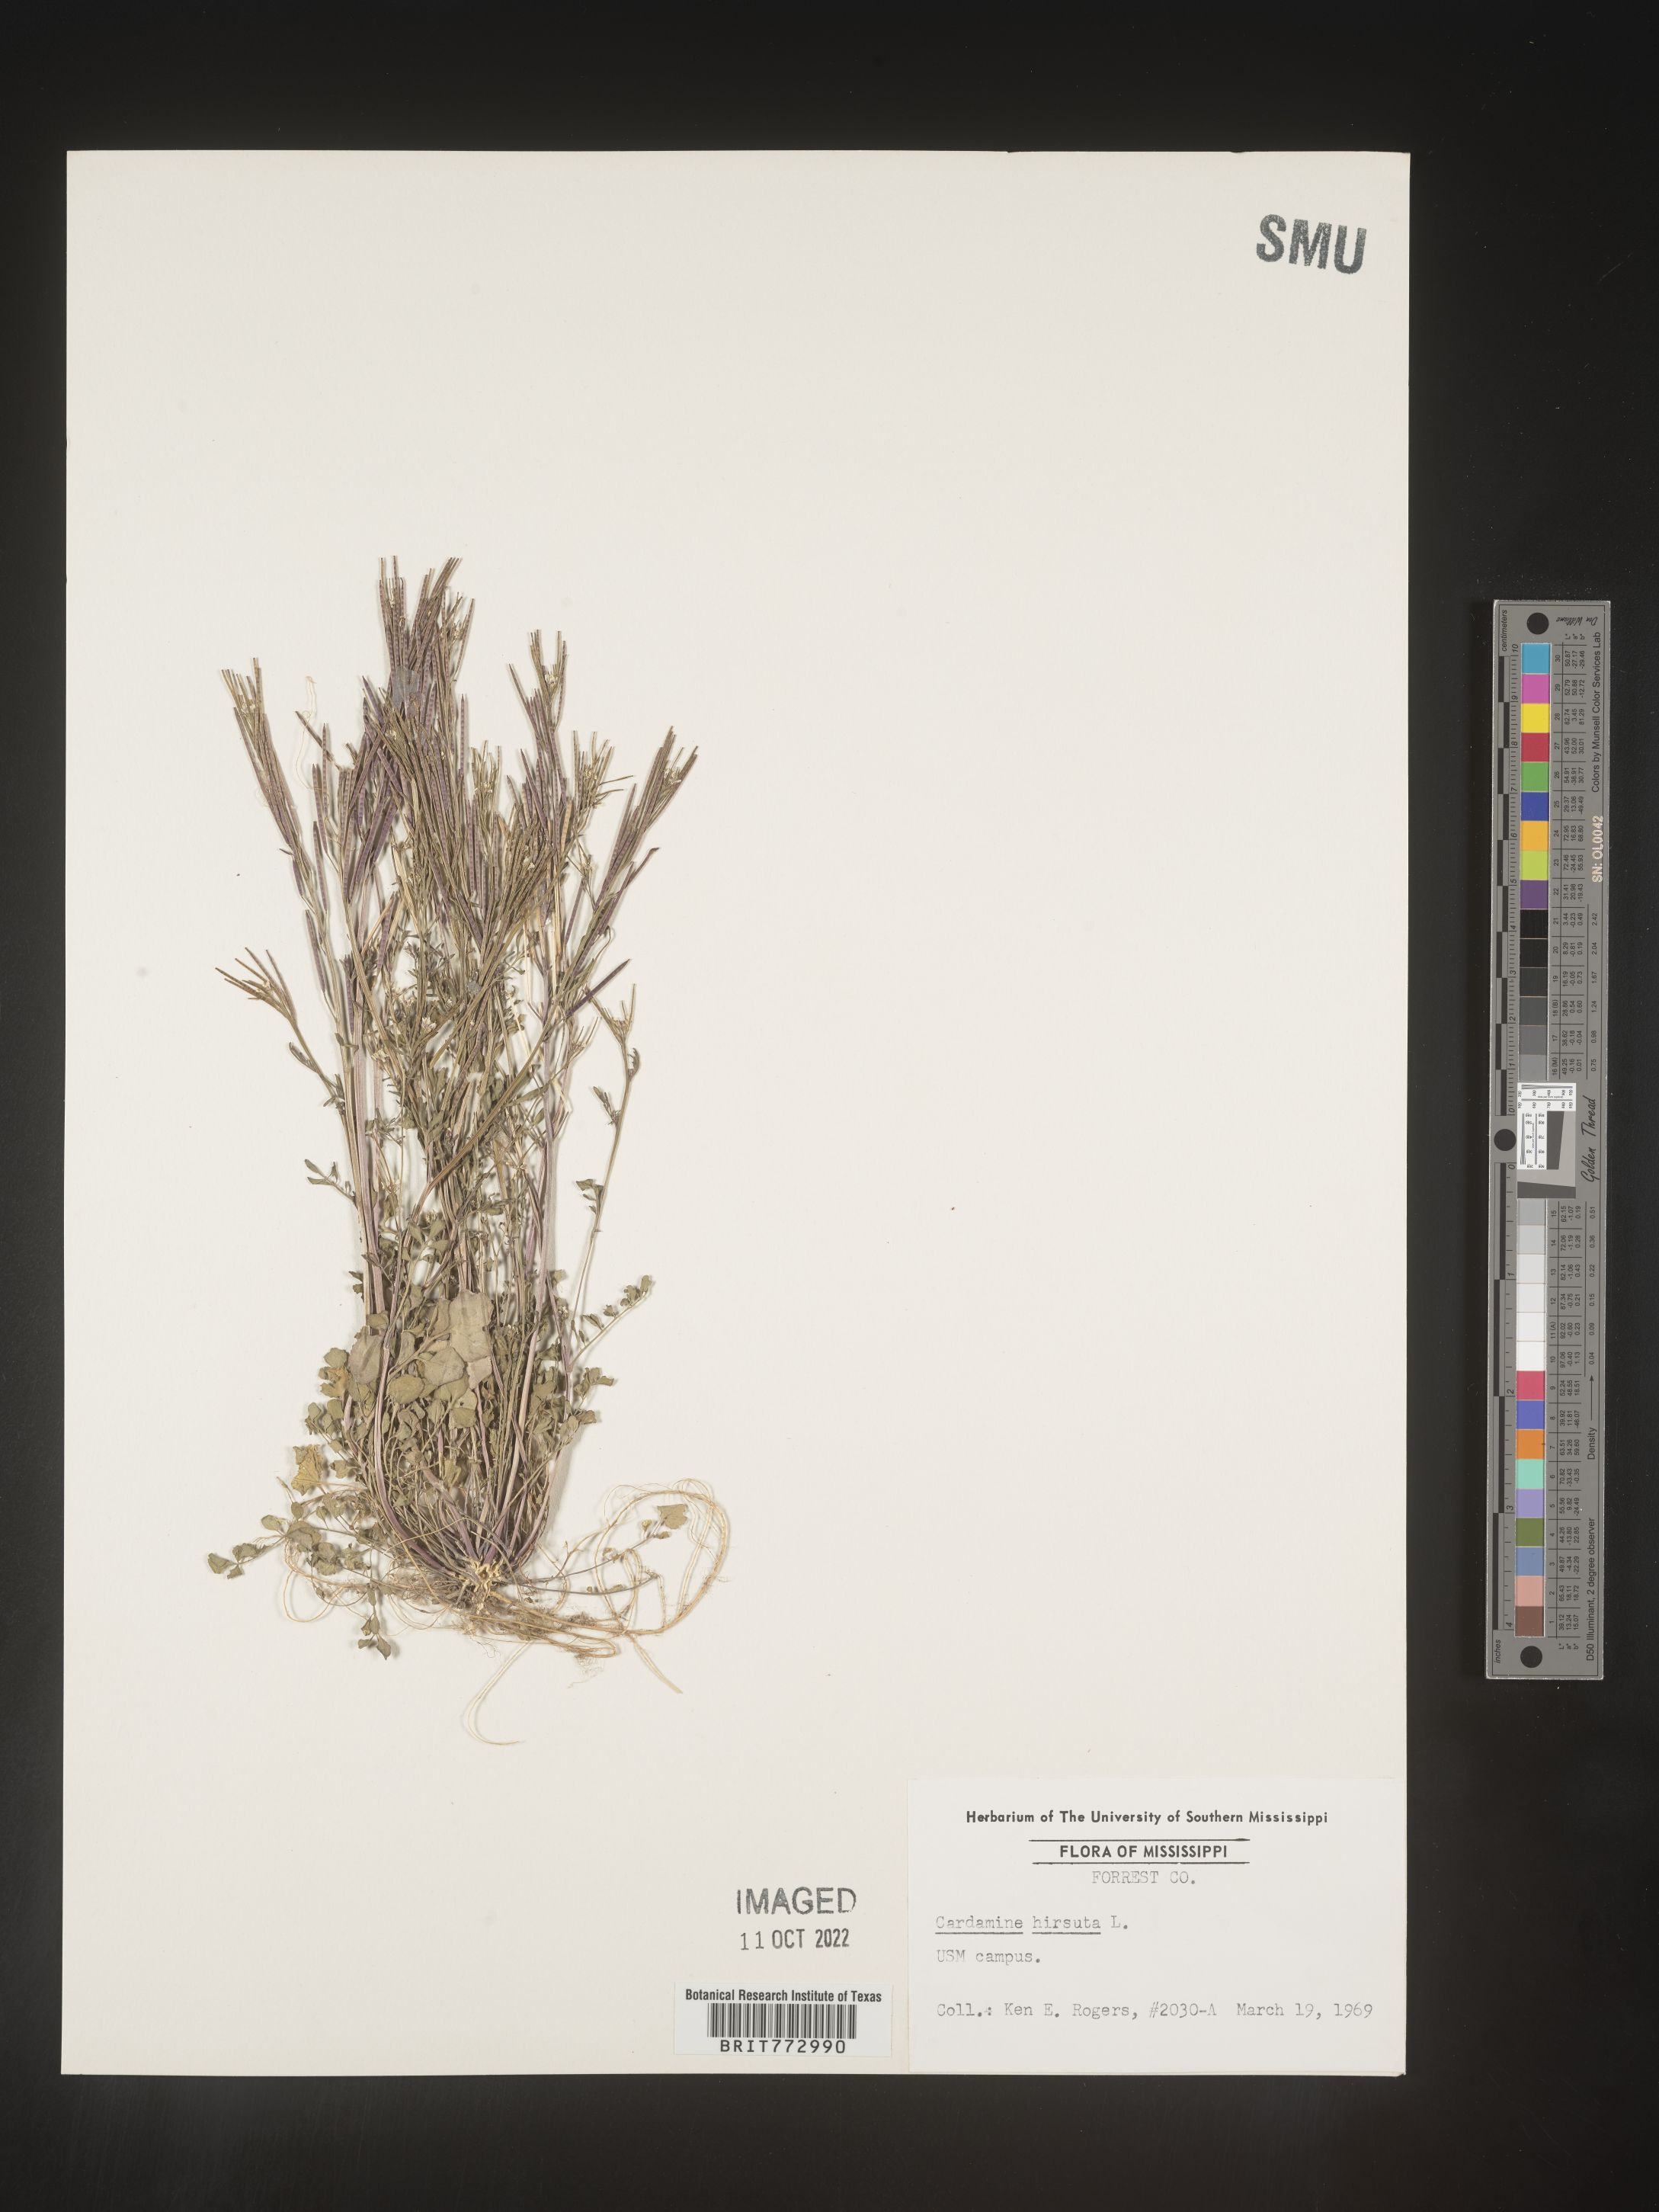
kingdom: Plantae
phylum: Tracheophyta
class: Magnoliopsida
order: Brassicales
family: Brassicaceae
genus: Cardamine
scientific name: Cardamine hirsuta
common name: Hairy bittercress
